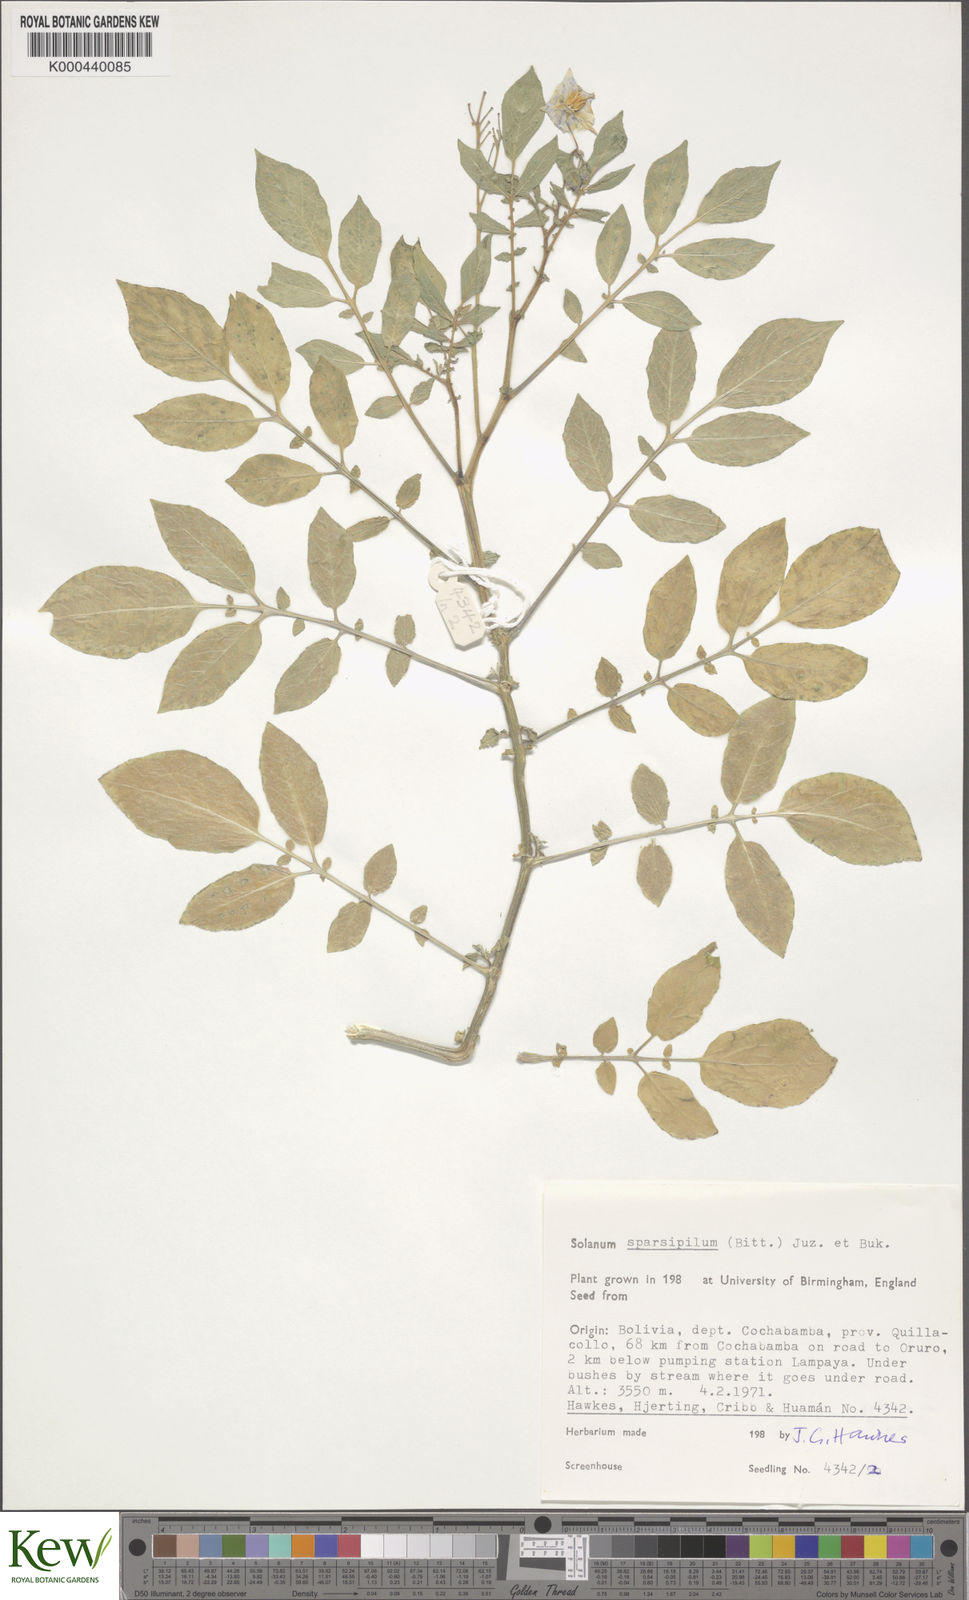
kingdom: Plantae
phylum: Tracheophyta
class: Magnoliopsida
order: Solanales
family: Solanaceae
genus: Solanum
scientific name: Solanum brevicaule
